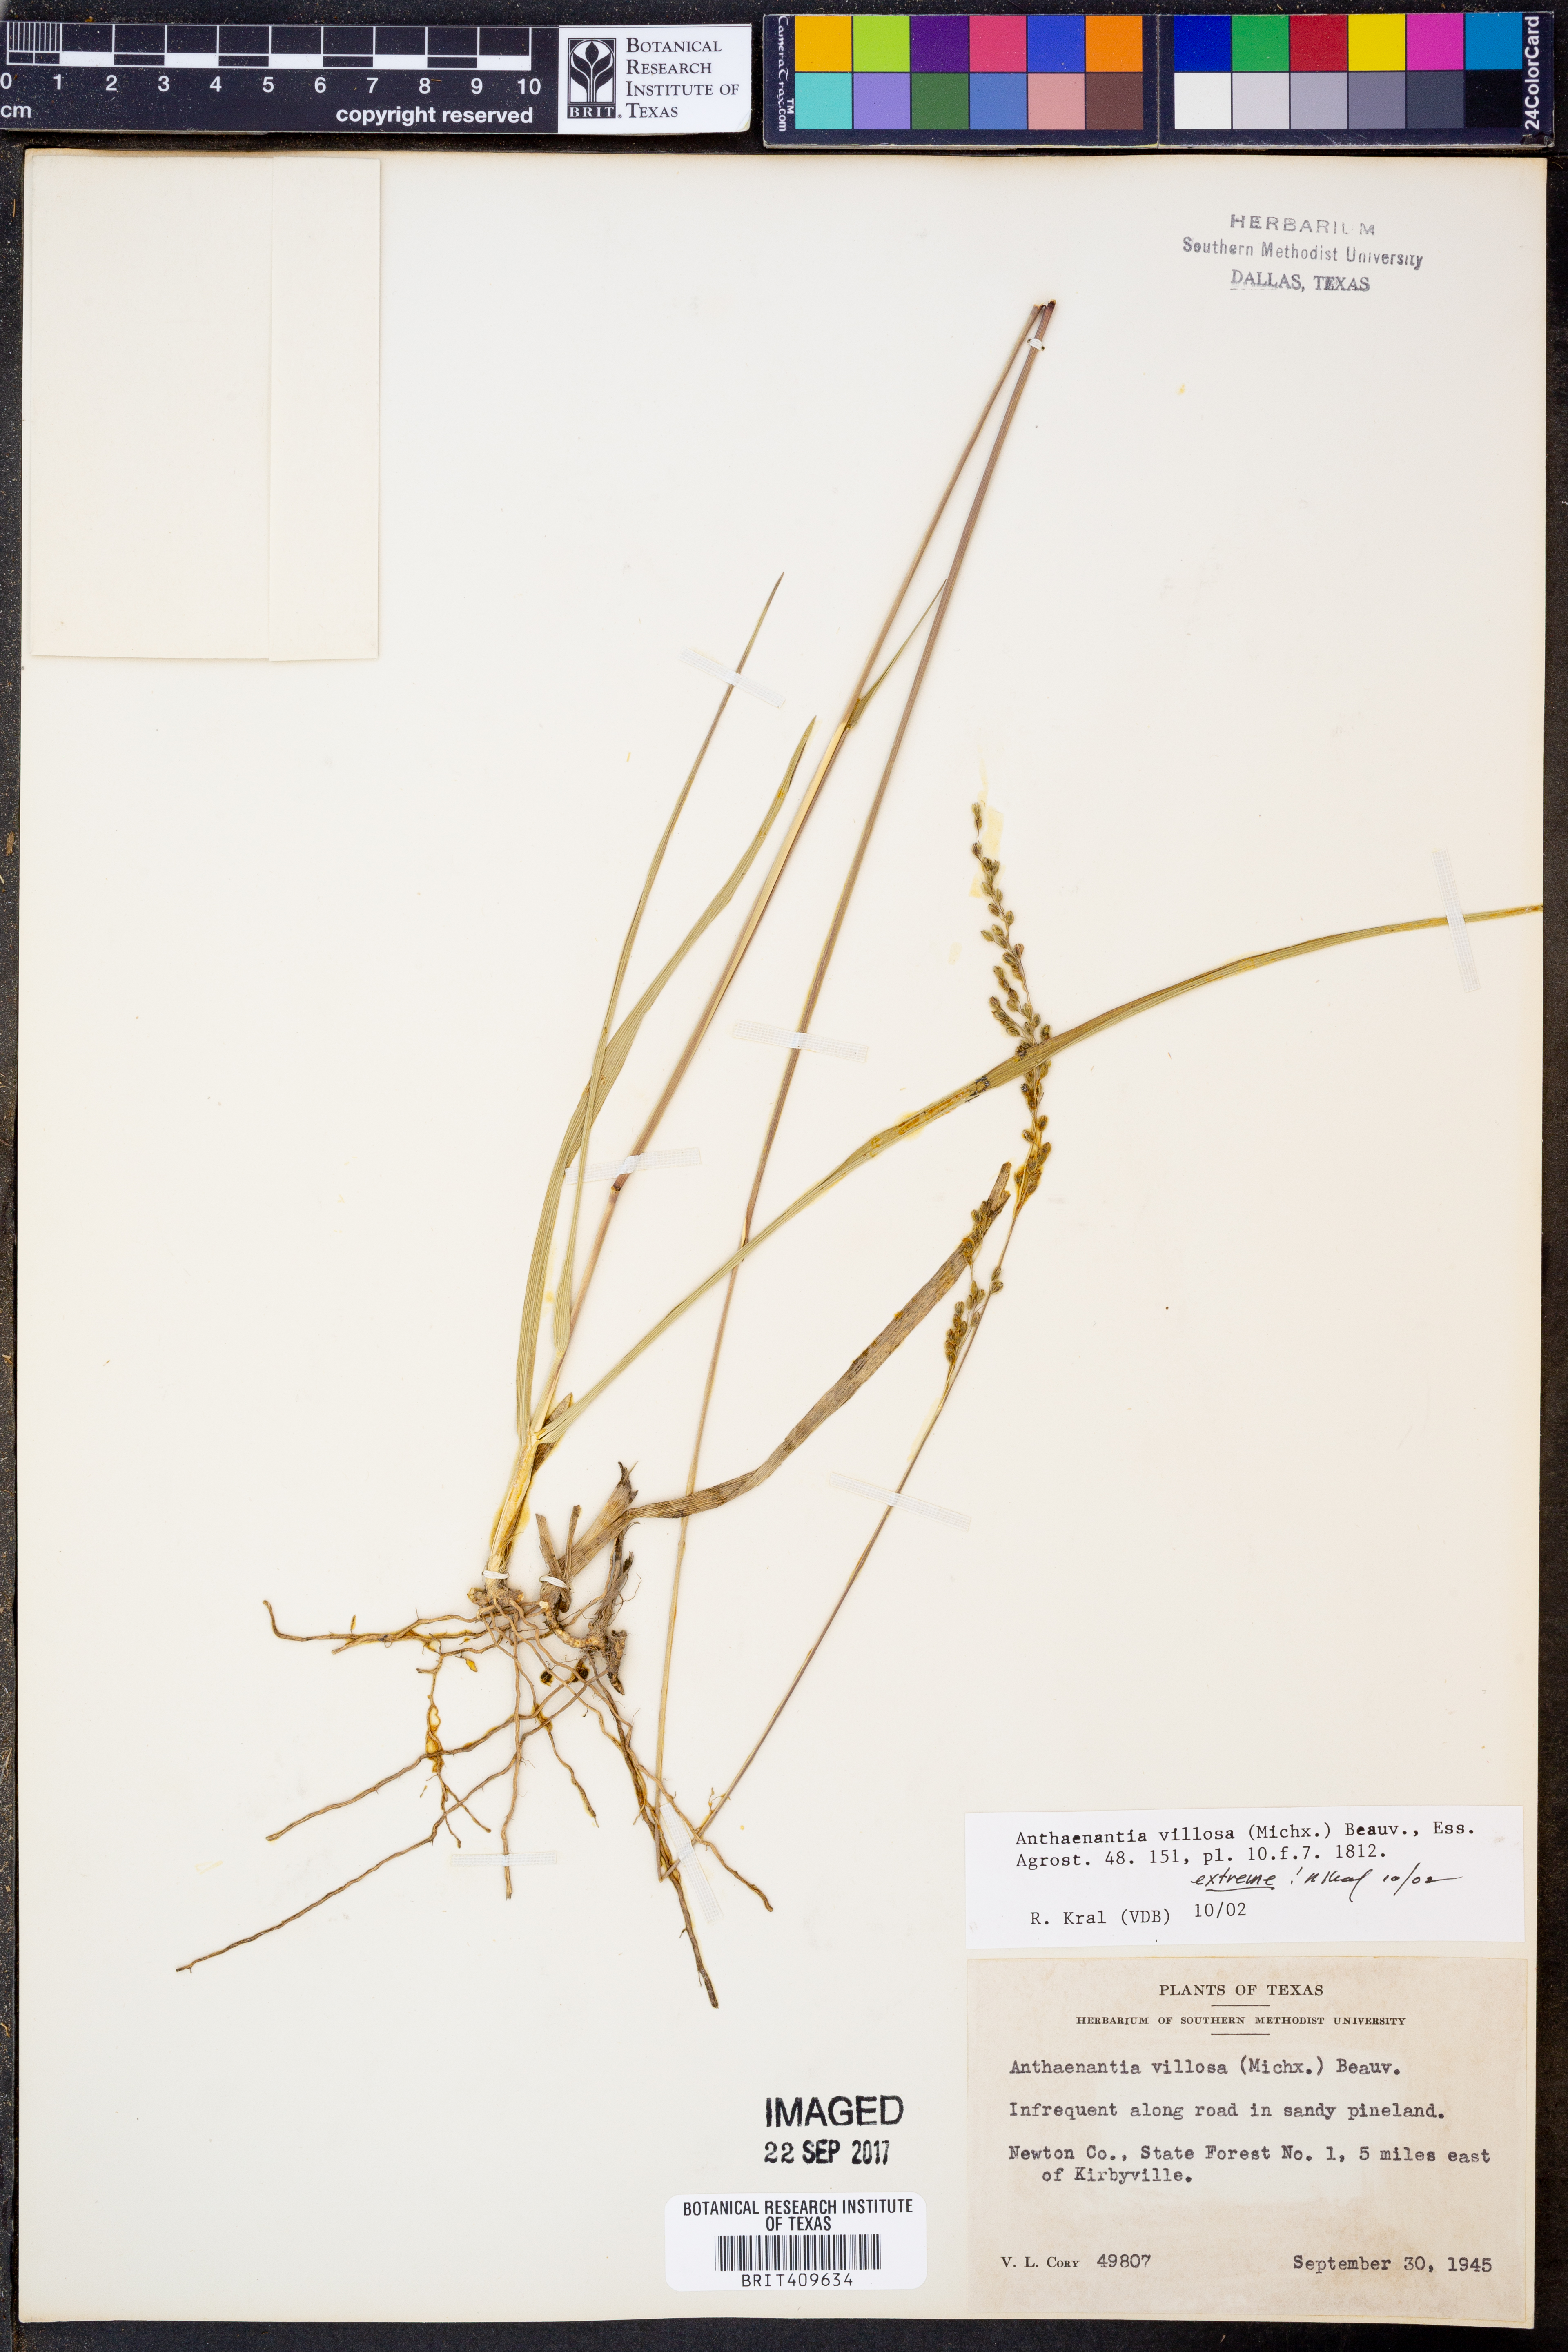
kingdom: Plantae
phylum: Tracheophyta
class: Liliopsida
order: Poales
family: Poaceae
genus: Anthenantia
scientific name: Anthenantia villosa
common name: Green silkyscale
